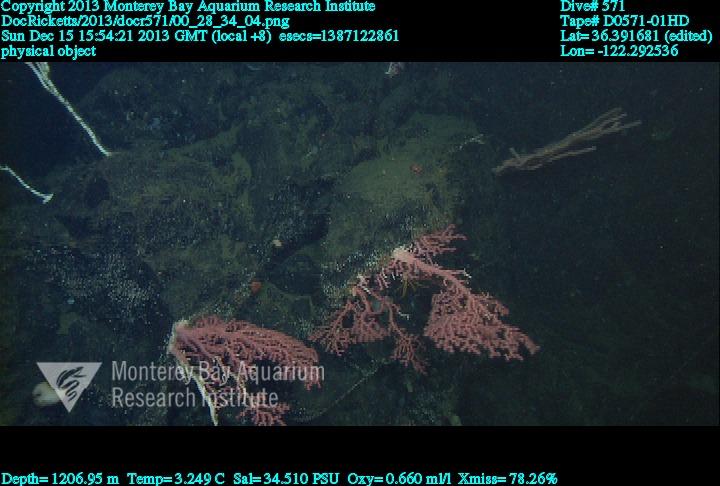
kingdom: Animalia
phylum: Cnidaria
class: Anthozoa
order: Scleralcyonacea
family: Coralliidae
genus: Paragorgia
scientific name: Paragorgia arborea
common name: Bubble gum coral
